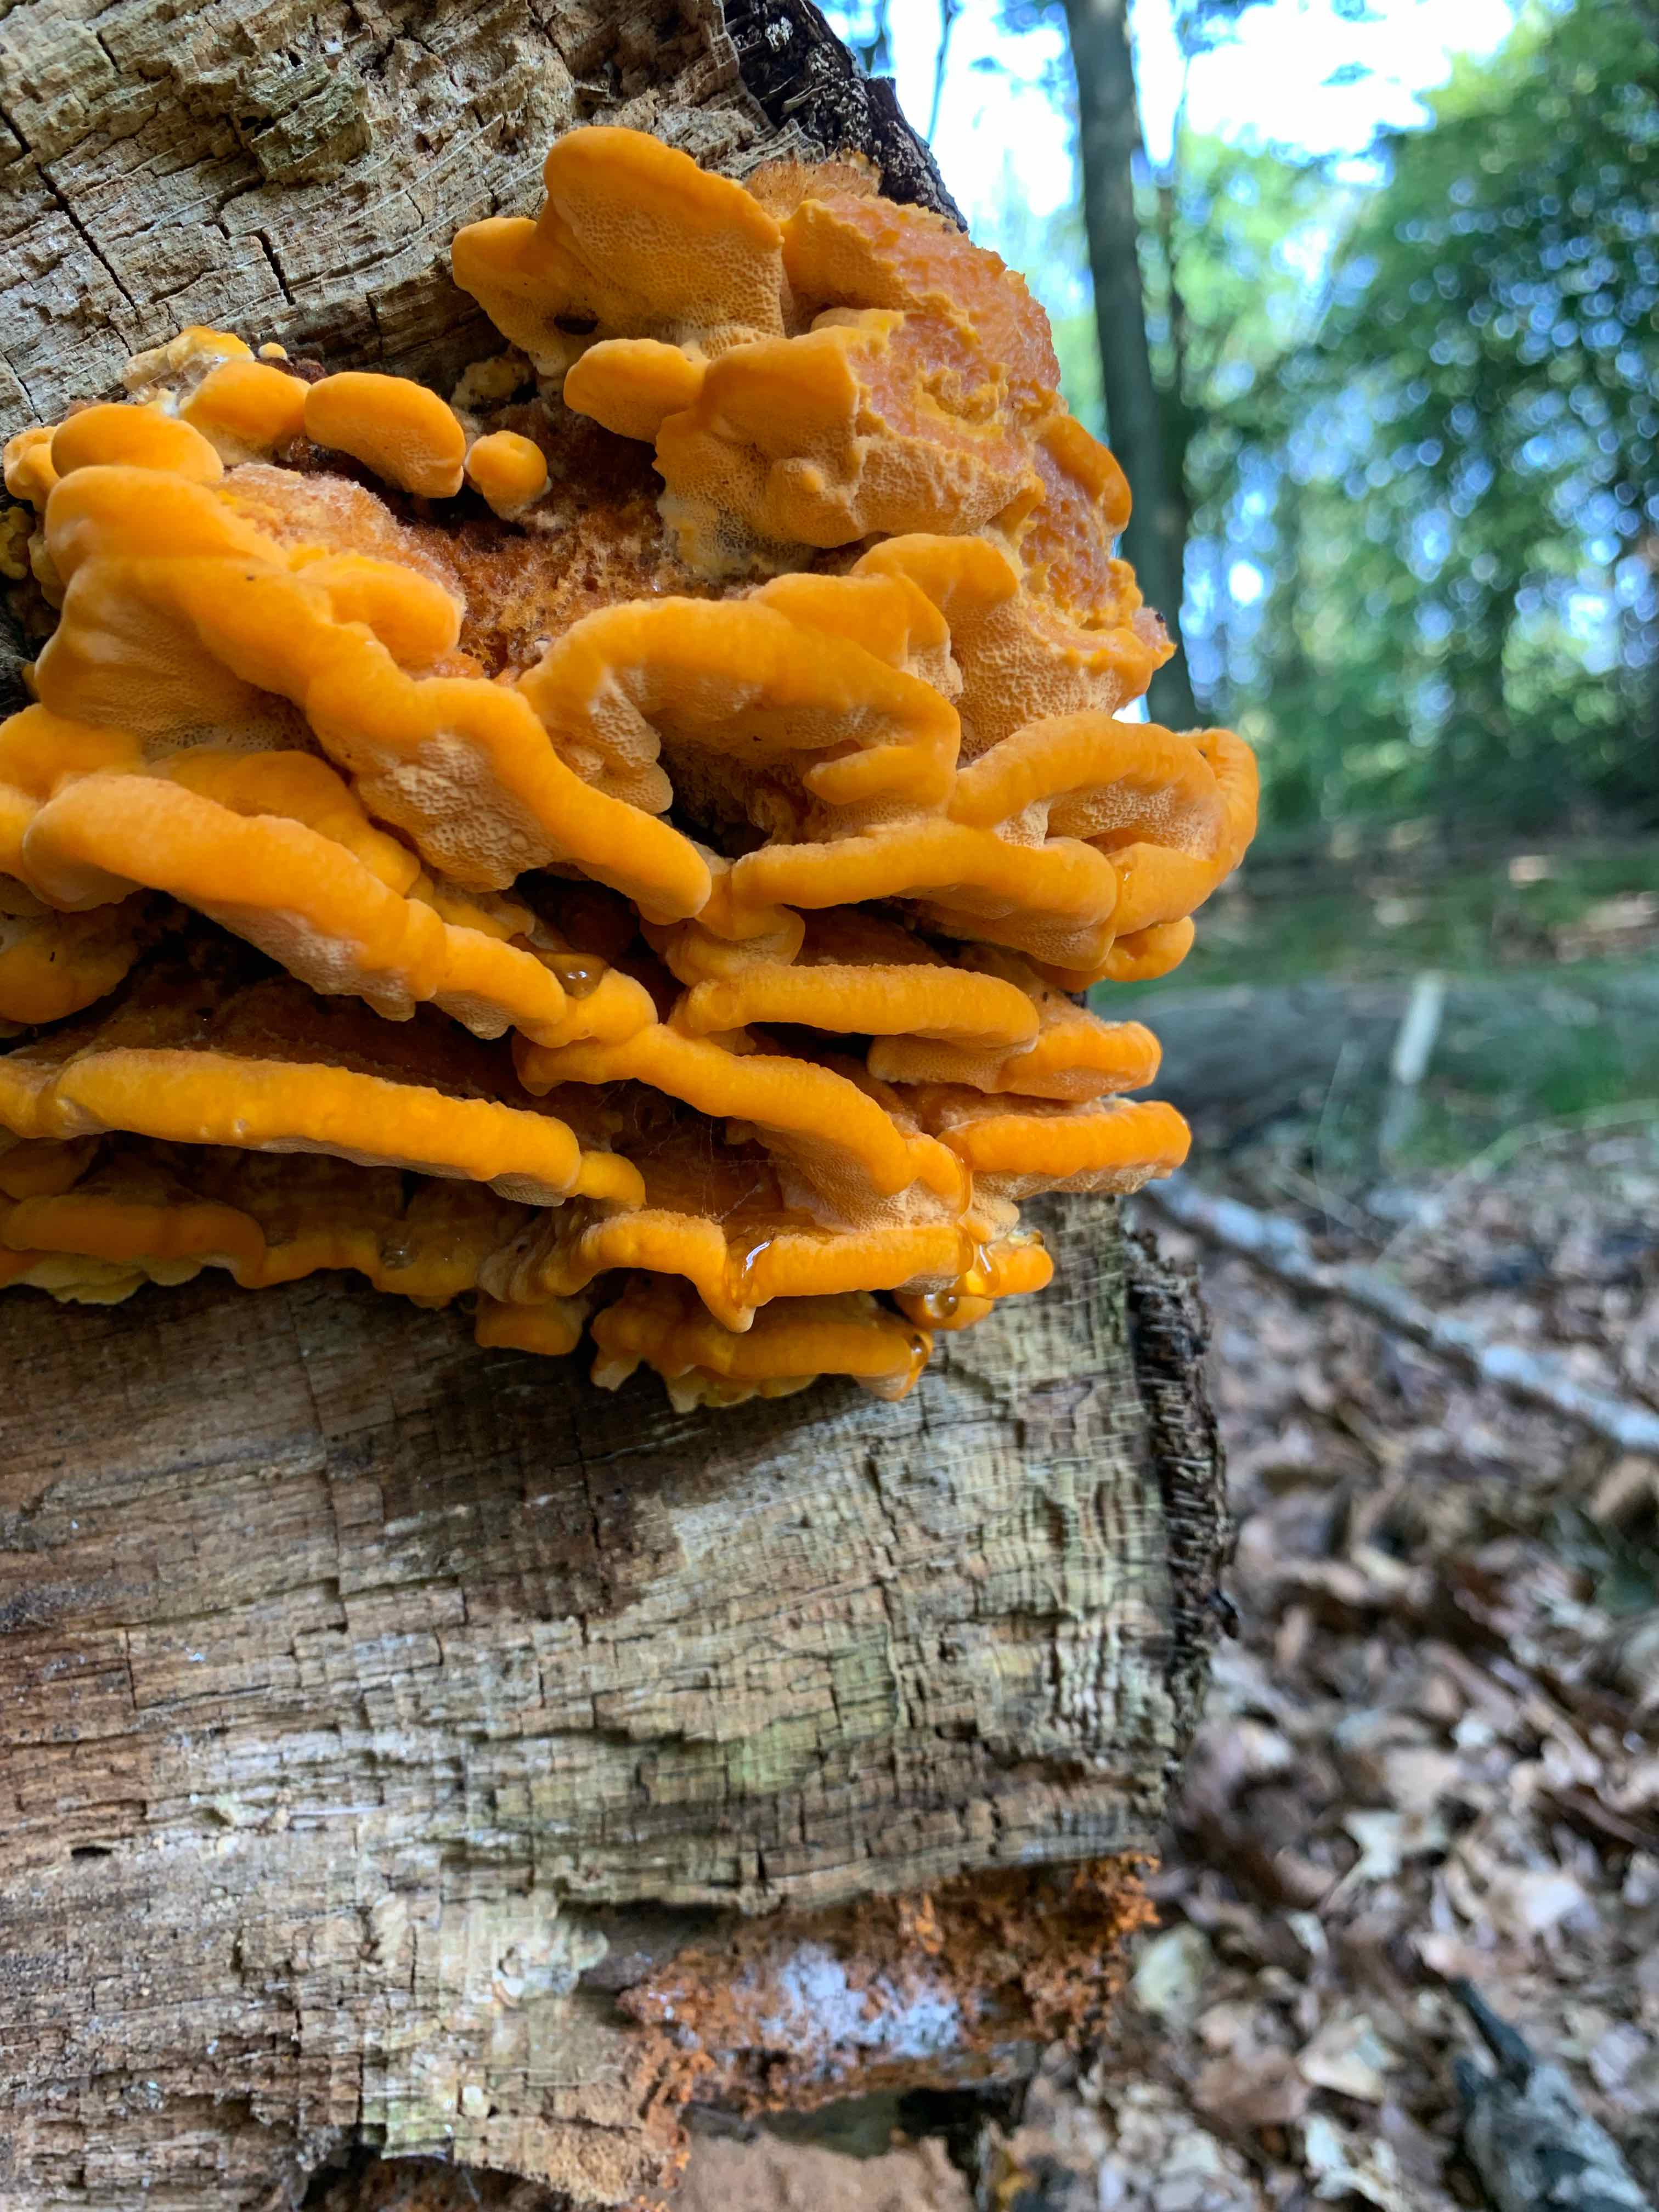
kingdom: Fungi
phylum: Basidiomycota
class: Agaricomycetes
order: Polyporales
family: Pycnoporellaceae
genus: Pycnoporellus
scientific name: Pycnoporellus fulgens
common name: flammeporesvamp
